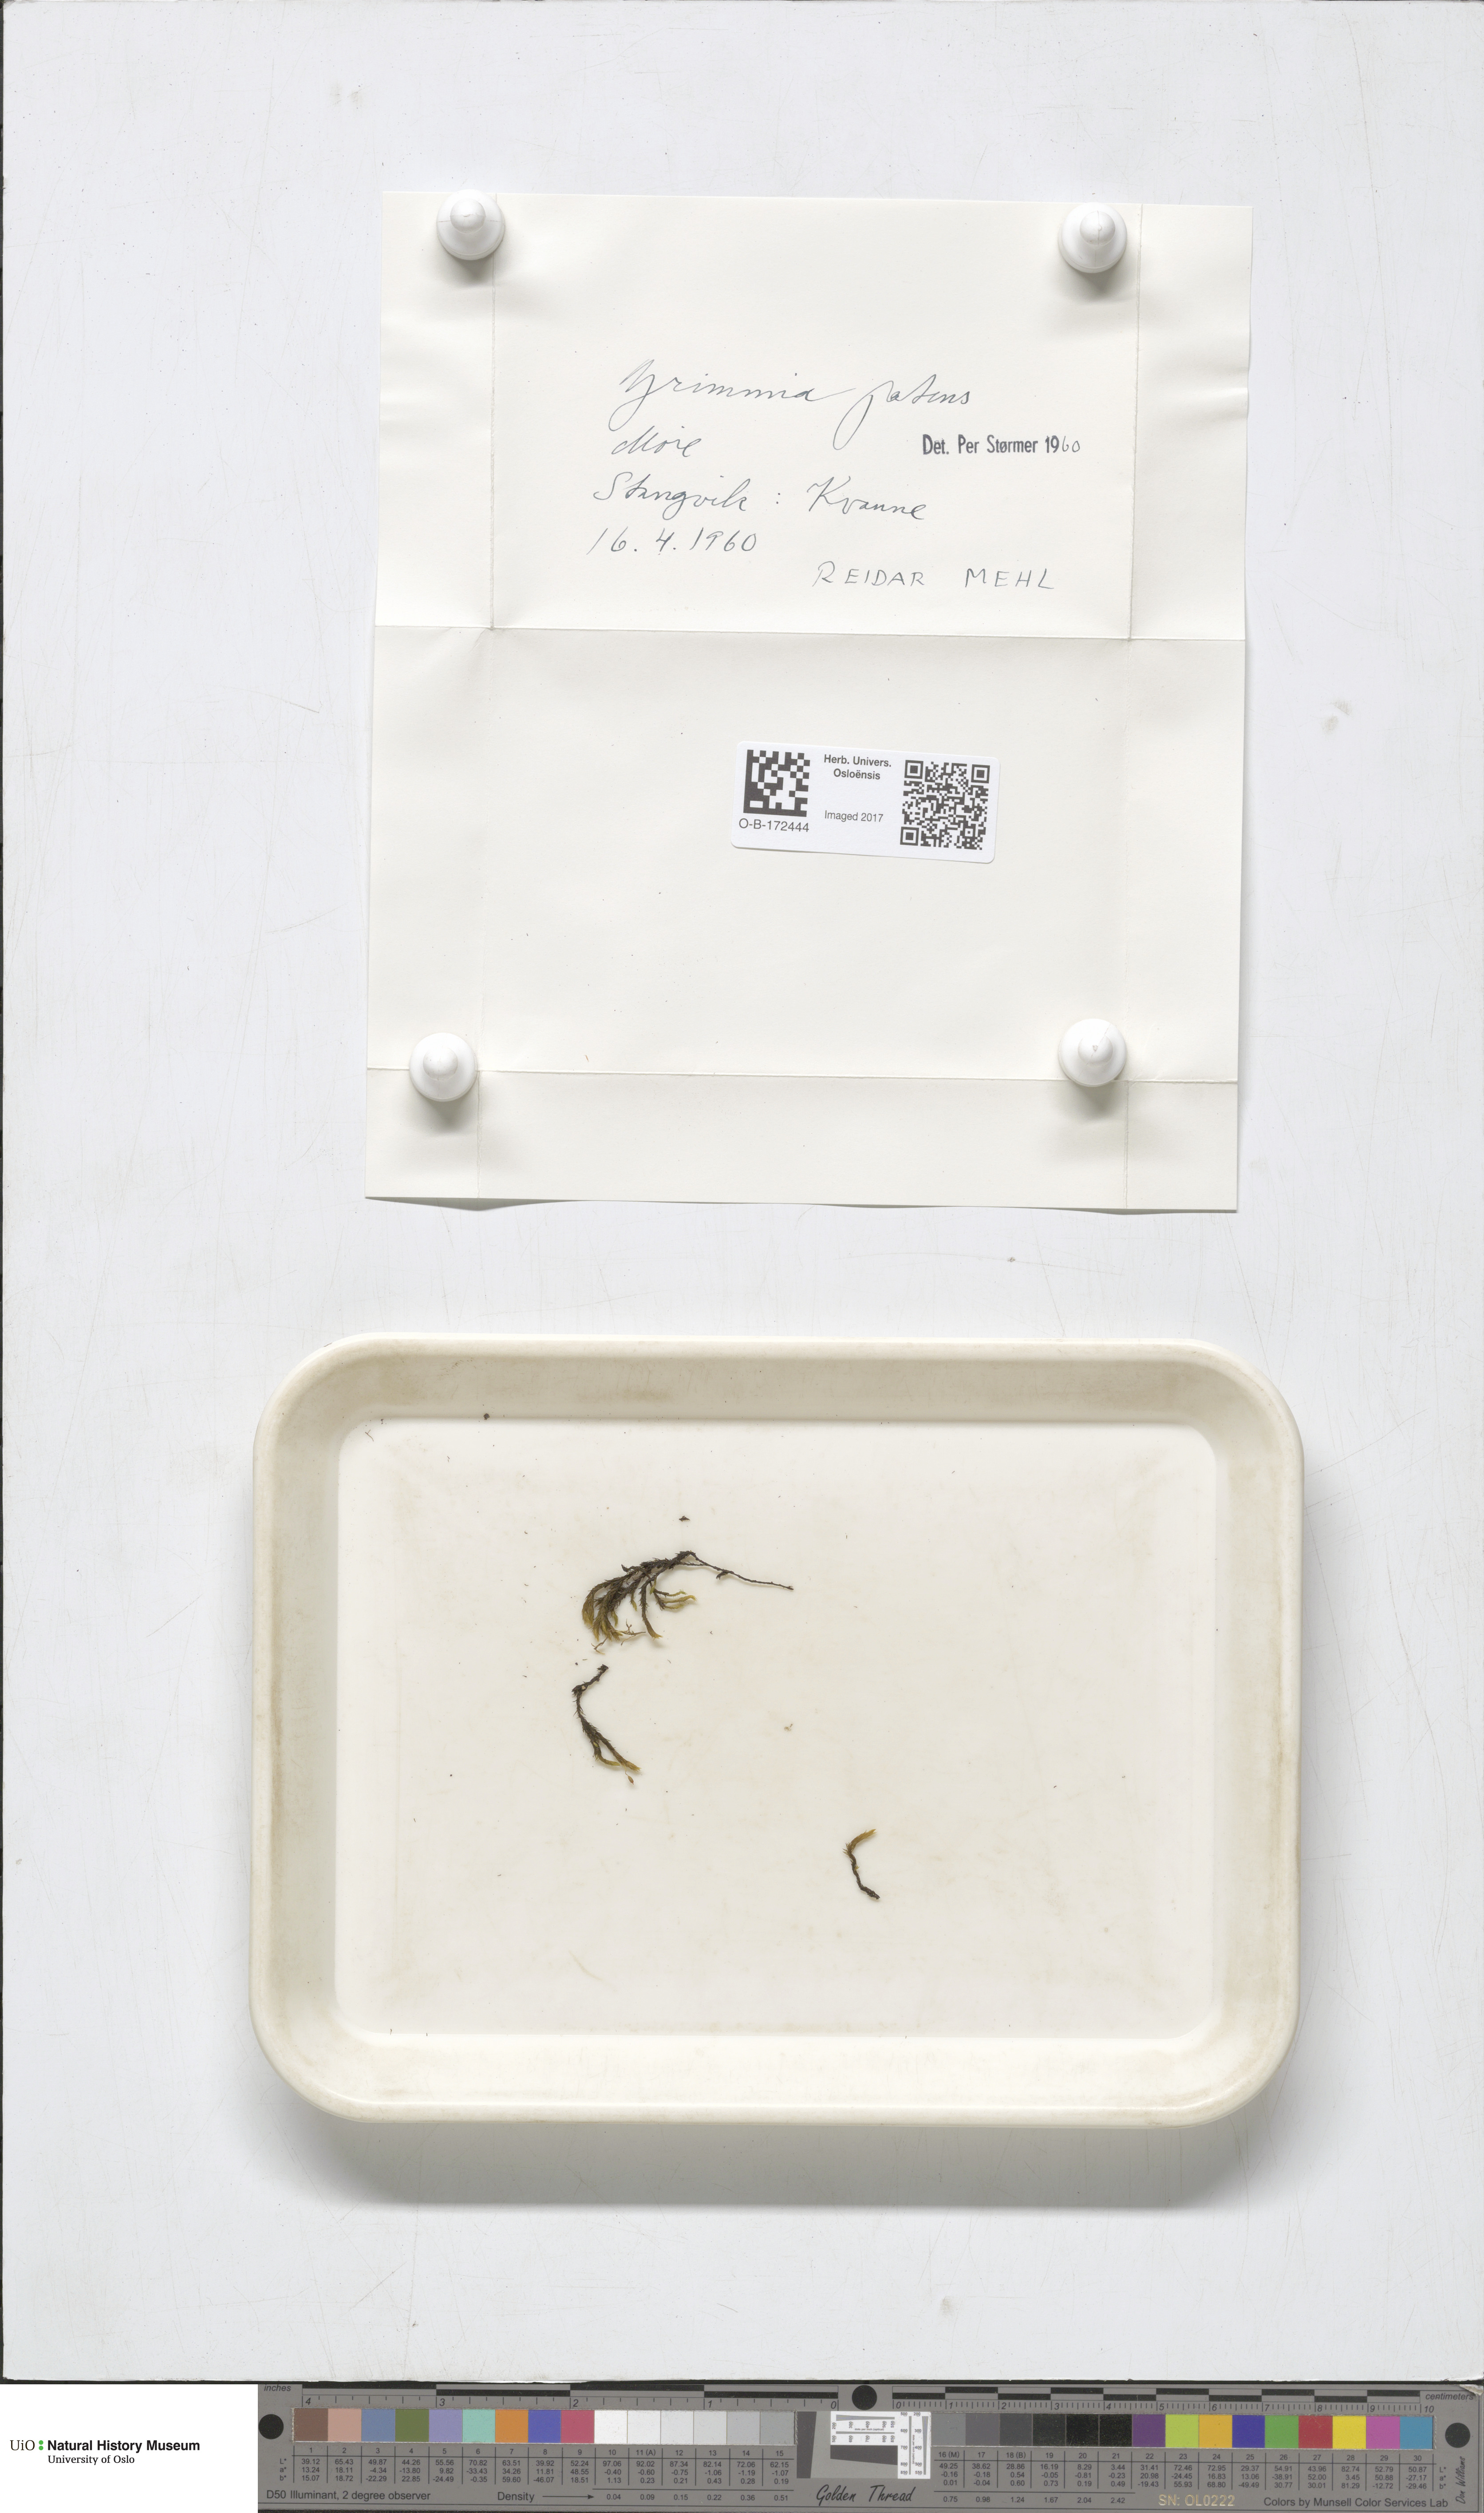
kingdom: Plantae
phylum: Bryophyta
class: Bryopsida
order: Grimmiales
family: Grimmiaceae
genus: Grimmia
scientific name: Grimmia ramondii
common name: Spreading-leaved grimmia
